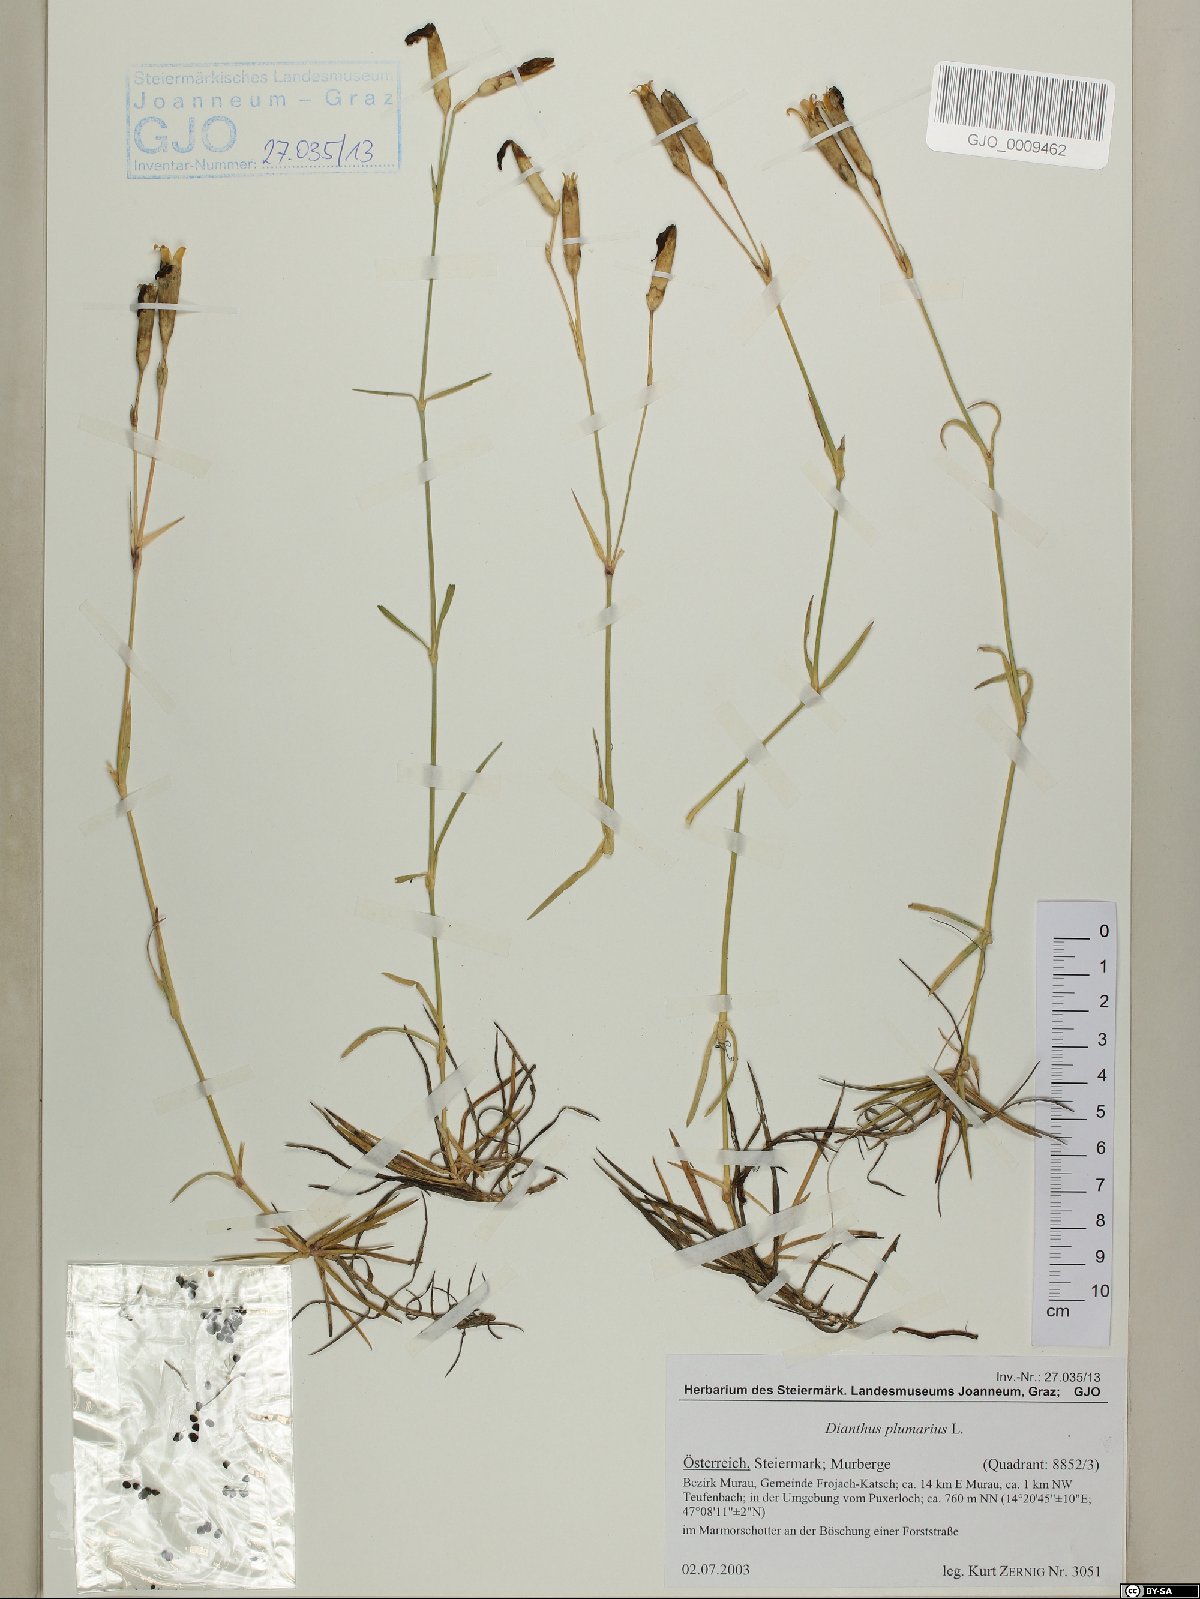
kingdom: Plantae
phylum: Tracheophyta
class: Magnoliopsida
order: Caryophyllales
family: Caryophyllaceae
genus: Dianthus
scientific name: Dianthus plumarius
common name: Pink
